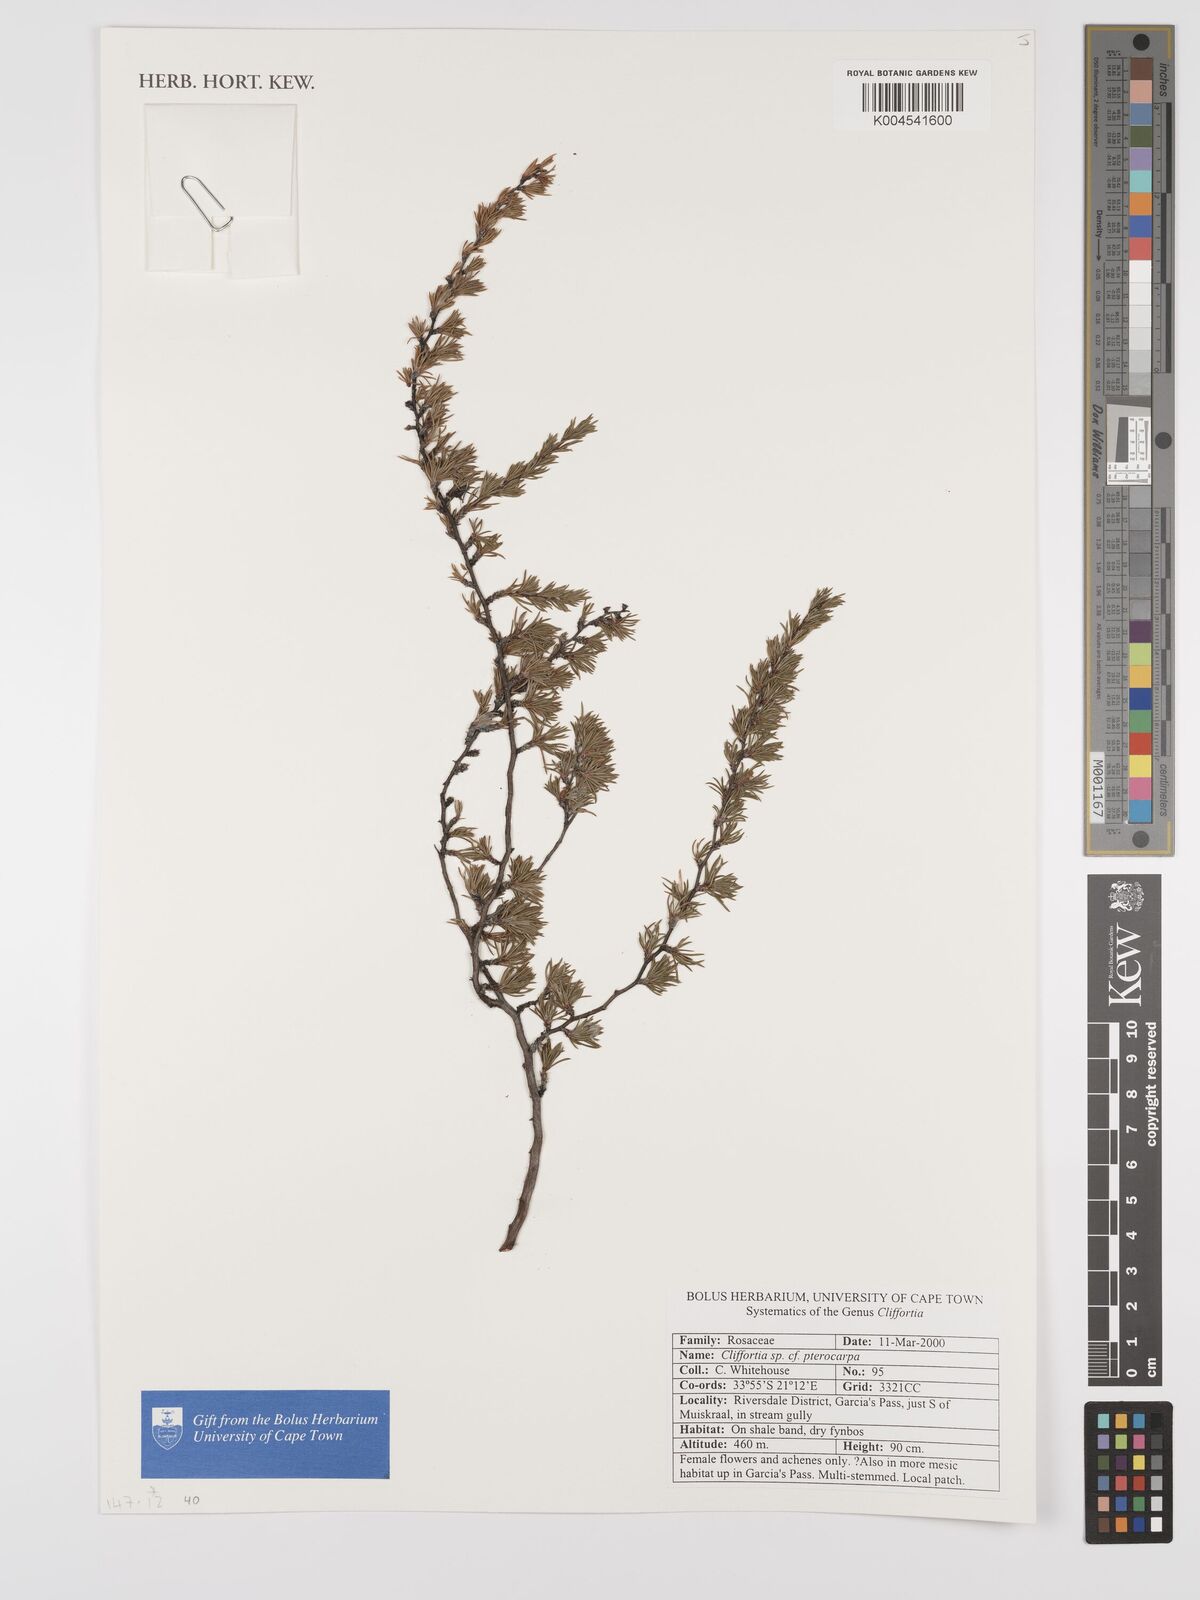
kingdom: Plantae
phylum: Tracheophyta
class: Magnoliopsida
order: Rosales
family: Rosaceae
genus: Cliffortia
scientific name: Cliffortia pterocarpa
